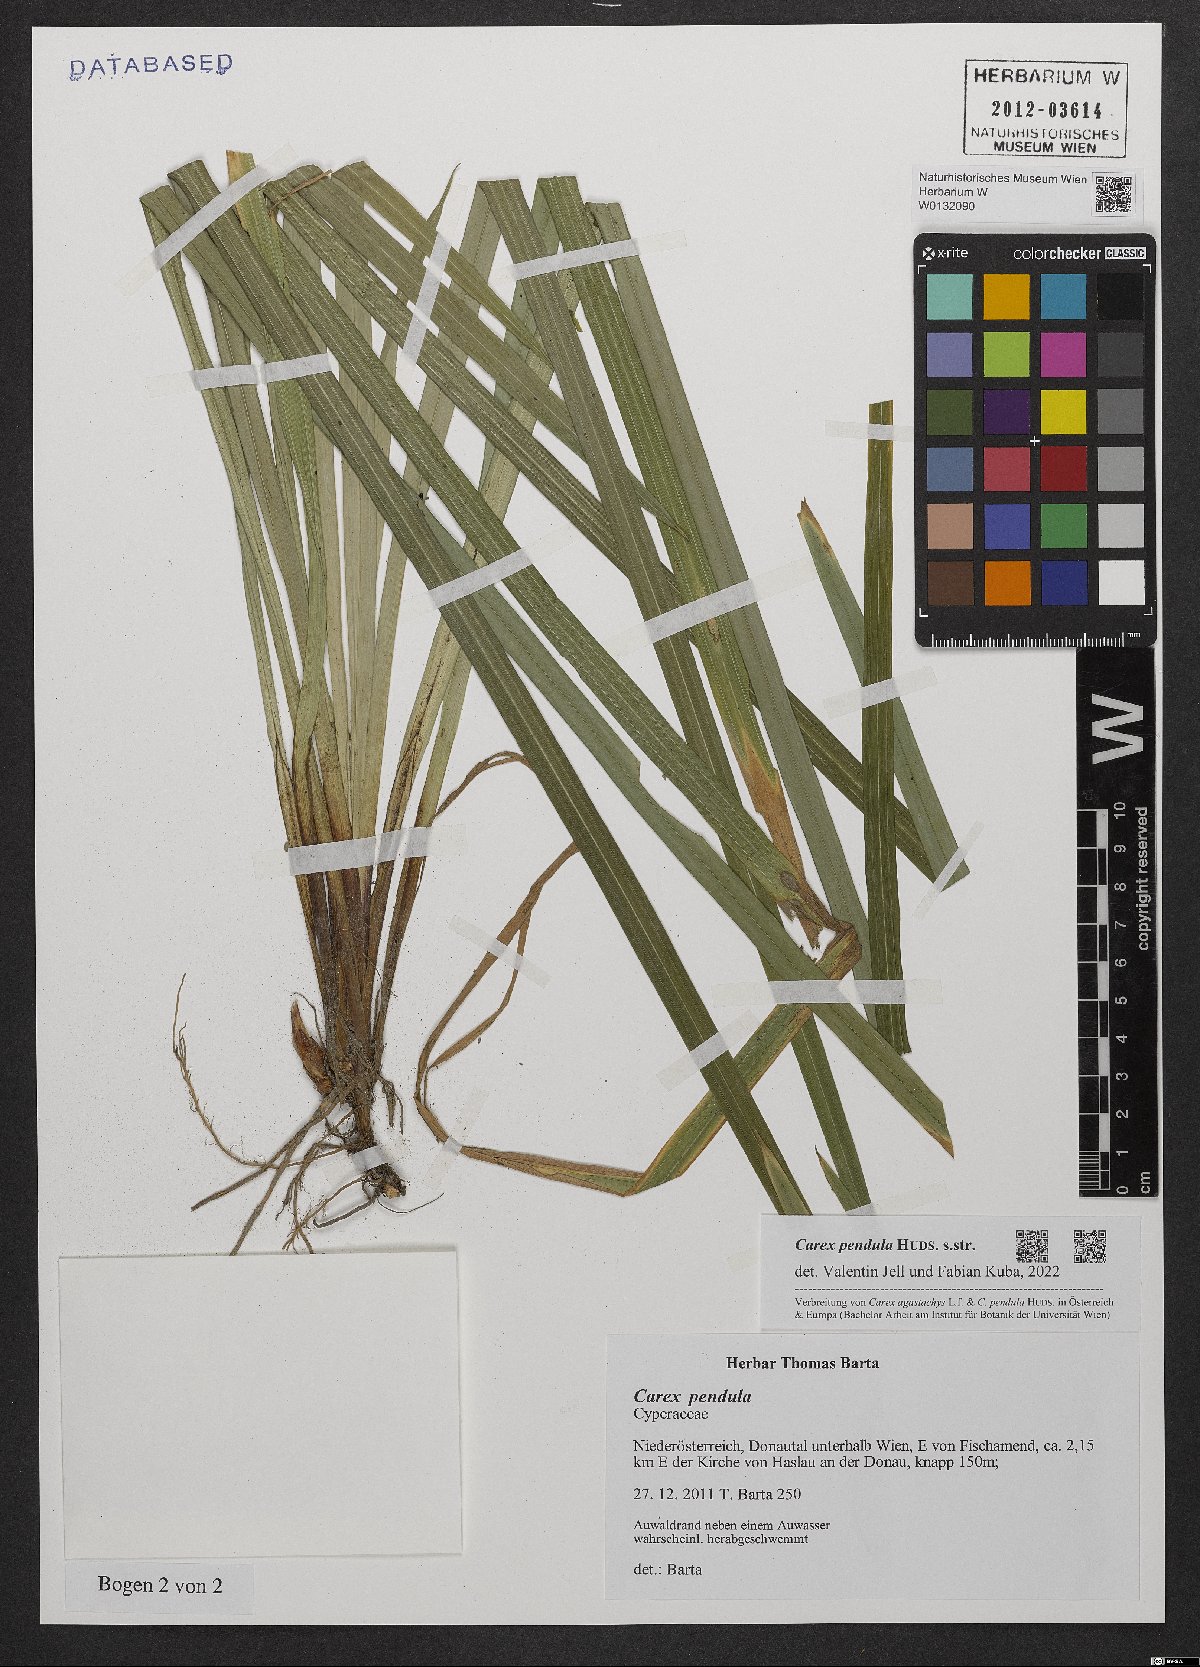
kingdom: Plantae
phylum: Tracheophyta
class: Liliopsida
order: Poales
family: Cyperaceae
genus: Carex
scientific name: Carex pendula
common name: Pendulous sedge
